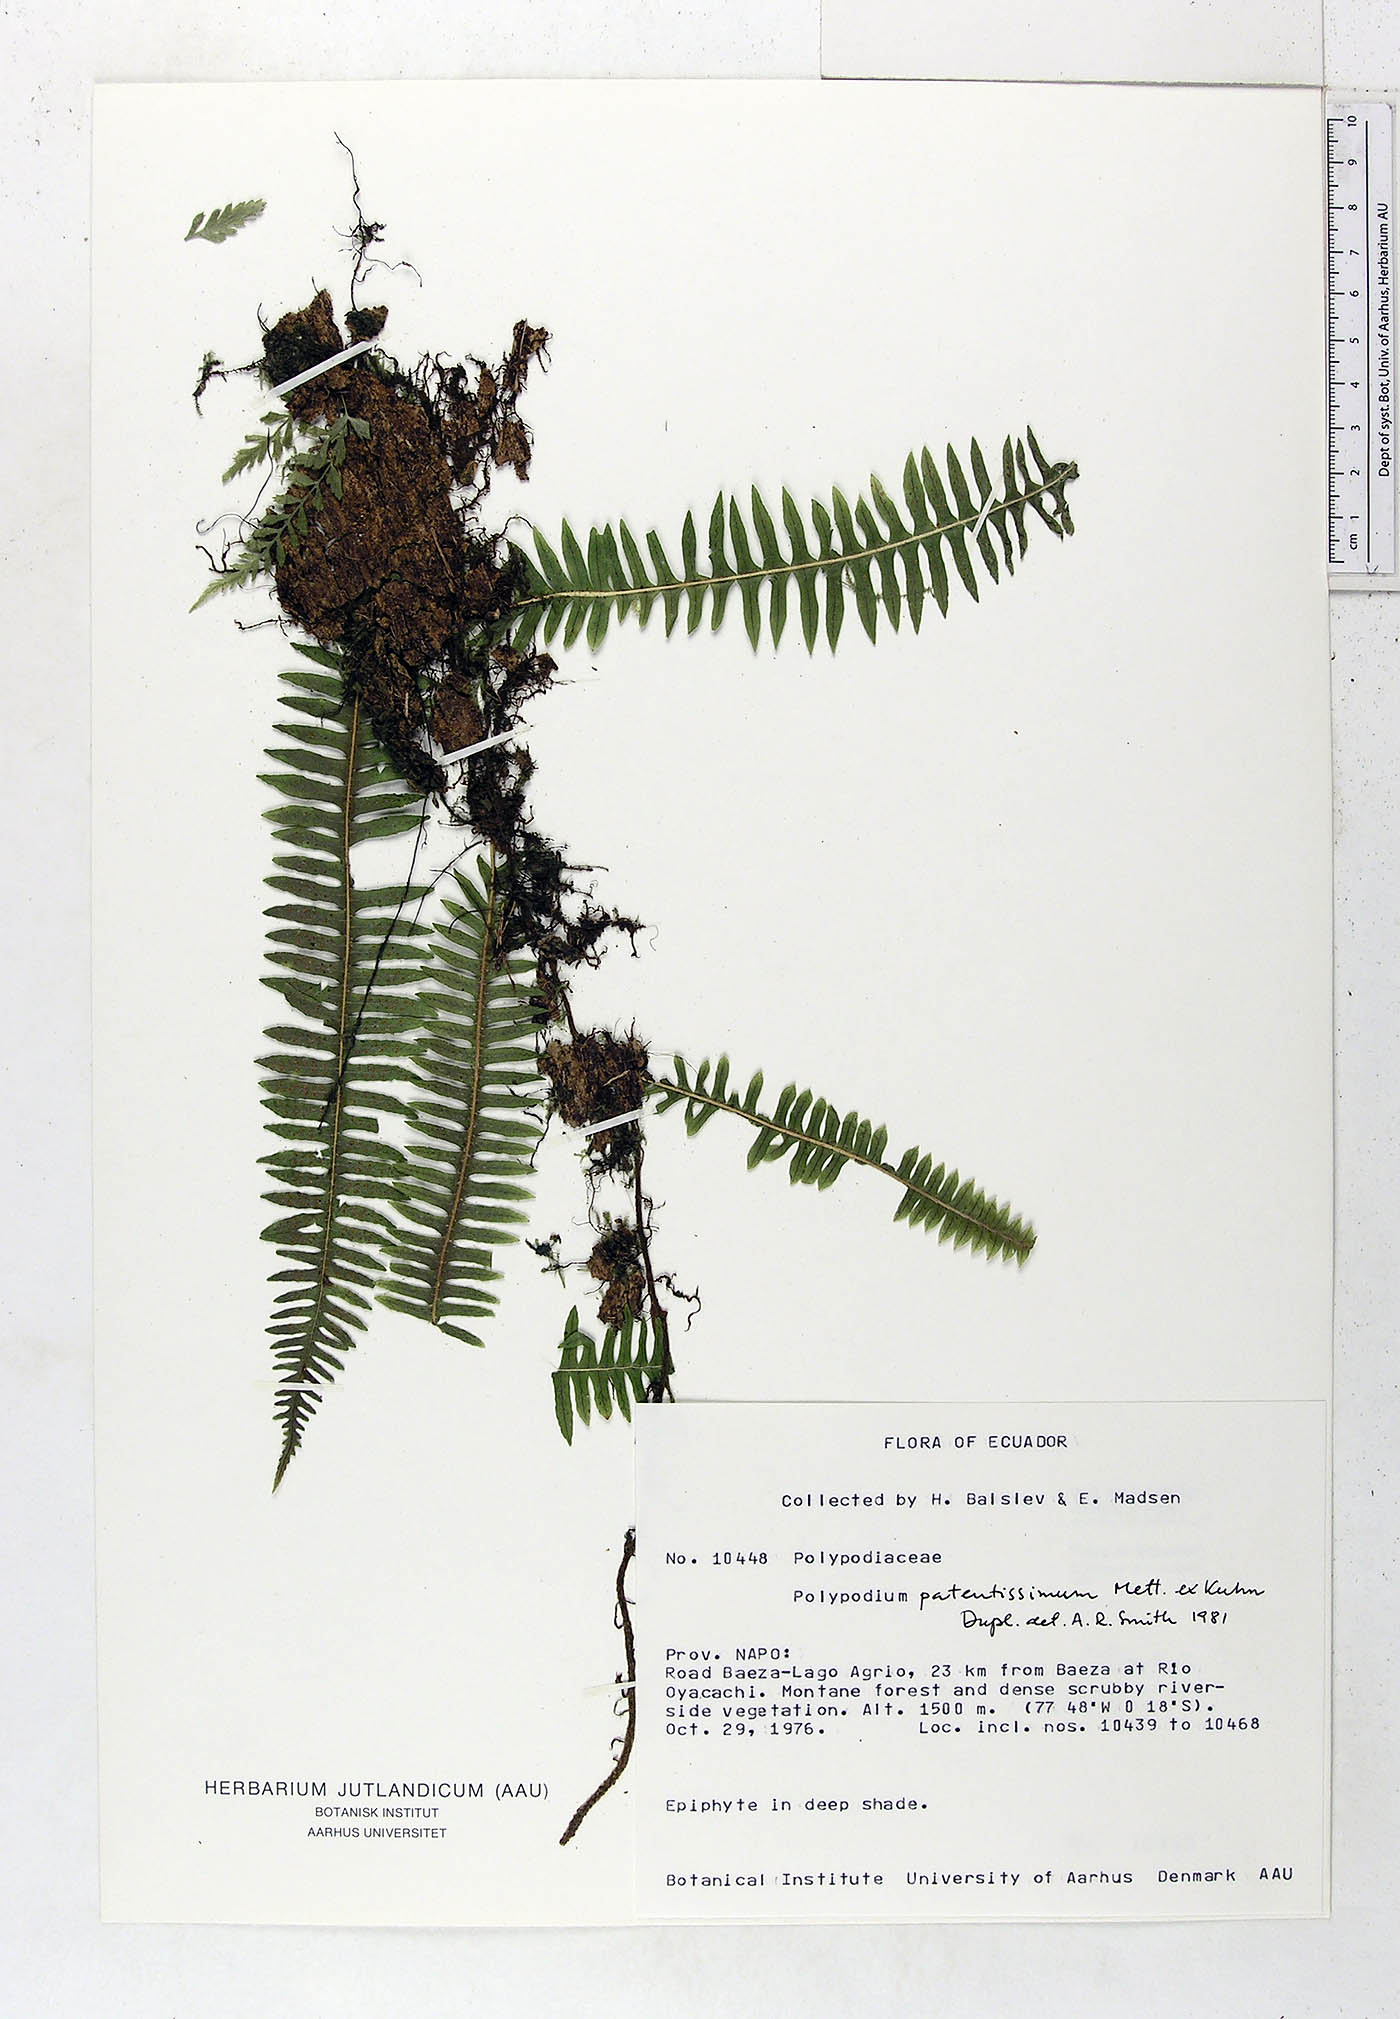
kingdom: Plantae
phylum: Tracheophyta
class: Polypodiopsida
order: Polypodiales
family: Polypodiaceae
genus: Serpocaulon
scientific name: Serpocaulon patentissimum
